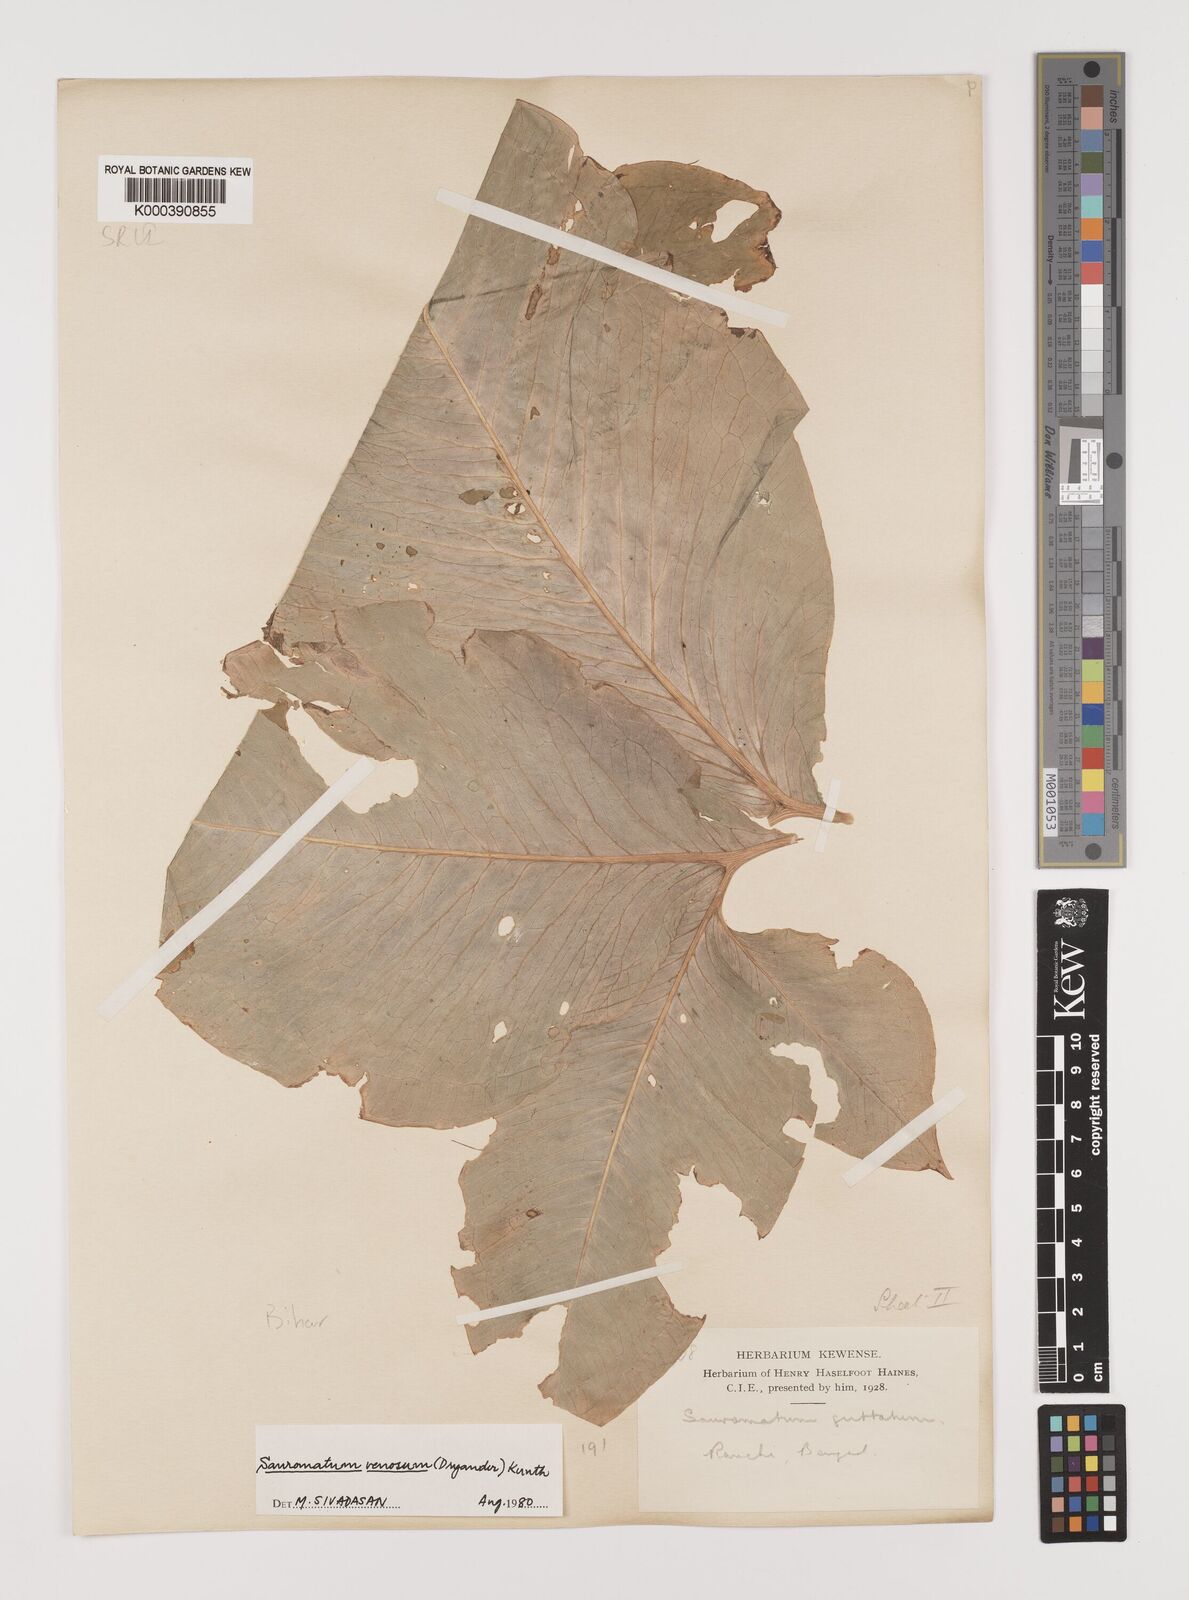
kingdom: Plantae
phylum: Tracheophyta
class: Liliopsida
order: Alismatales
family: Araceae
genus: Sauromatum
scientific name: Sauromatum venosum
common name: Voodoo lily
